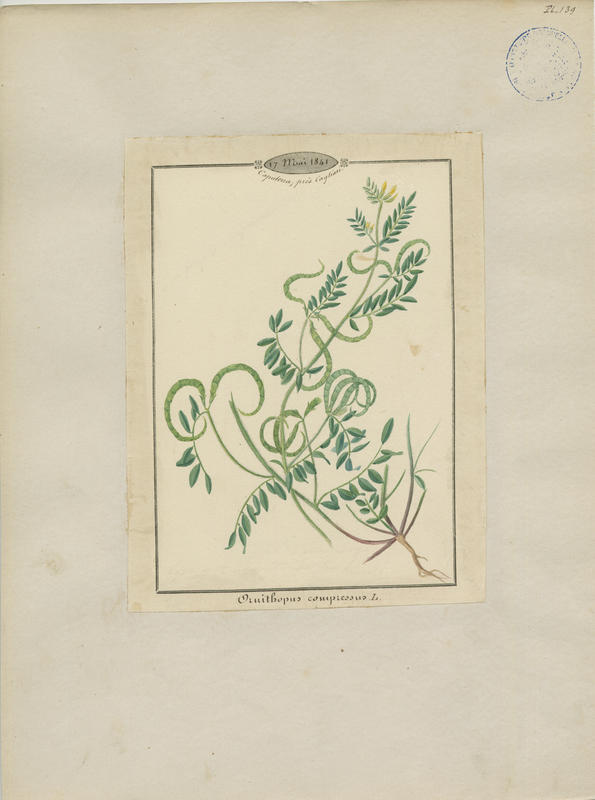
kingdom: Plantae
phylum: Tracheophyta
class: Magnoliopsida
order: Fabales
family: Fabaceae
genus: Ornithopus
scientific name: Ornithopus compressus
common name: Yellow serradella
